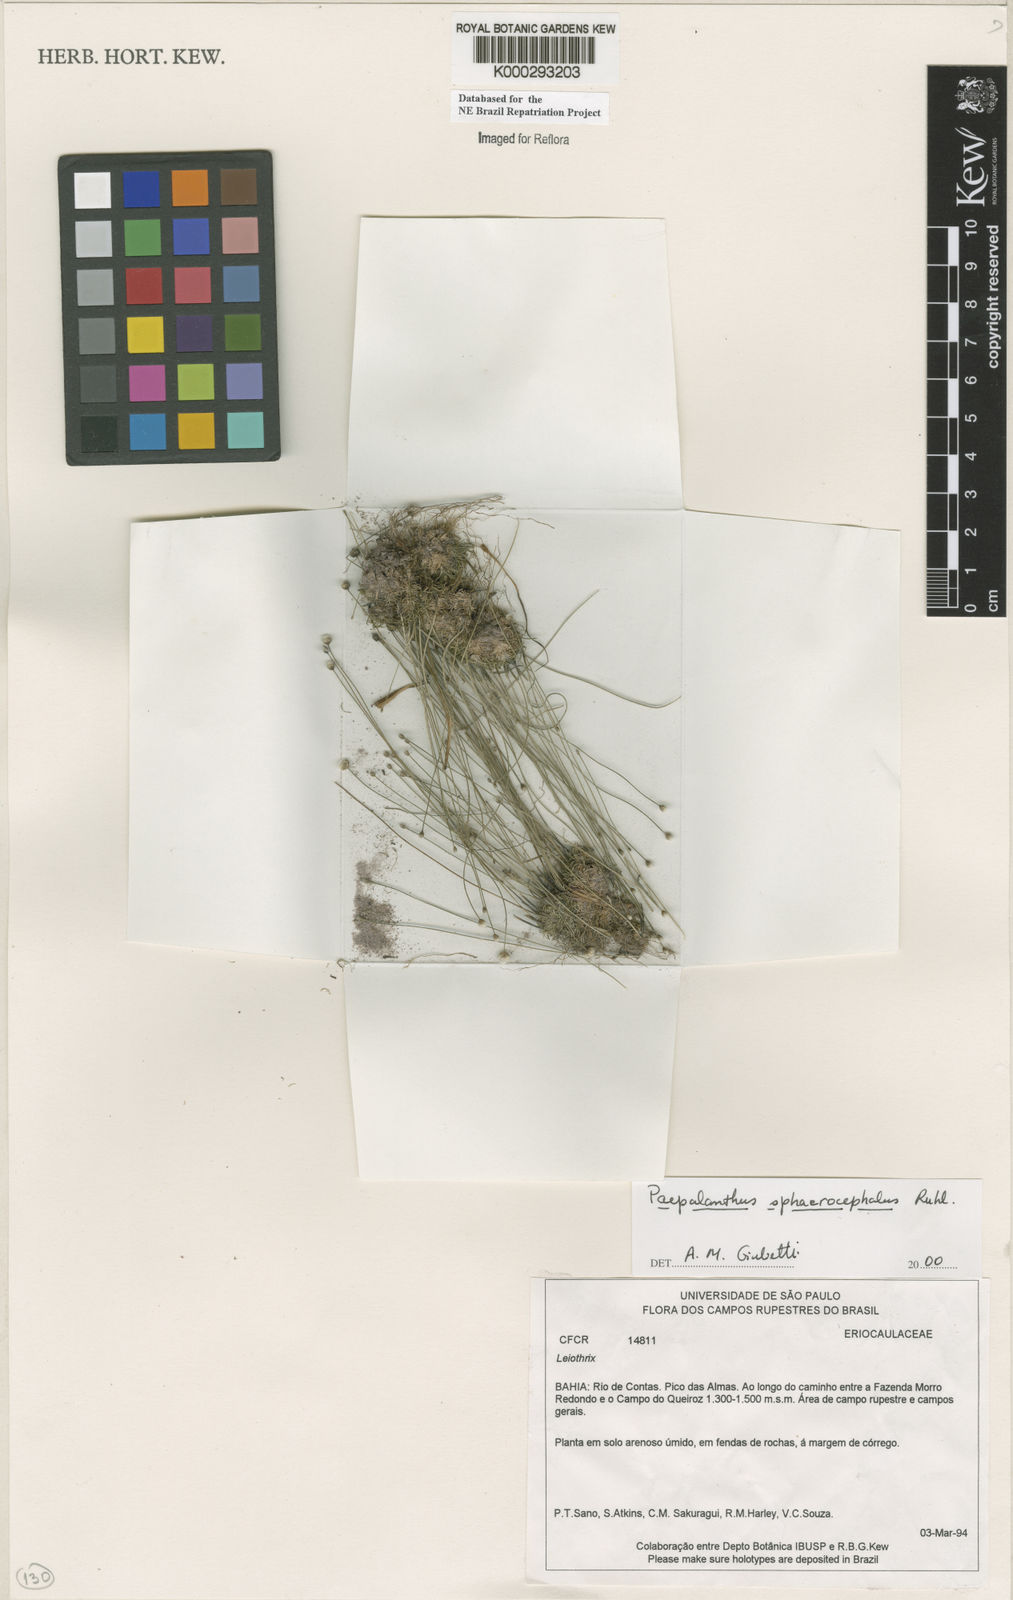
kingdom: Plantae
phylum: Tracheophyta
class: Liliopsida
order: Poales
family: Eriocaulaceae
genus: Paepalanthus
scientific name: Paepalanthus sphaerocephalus
